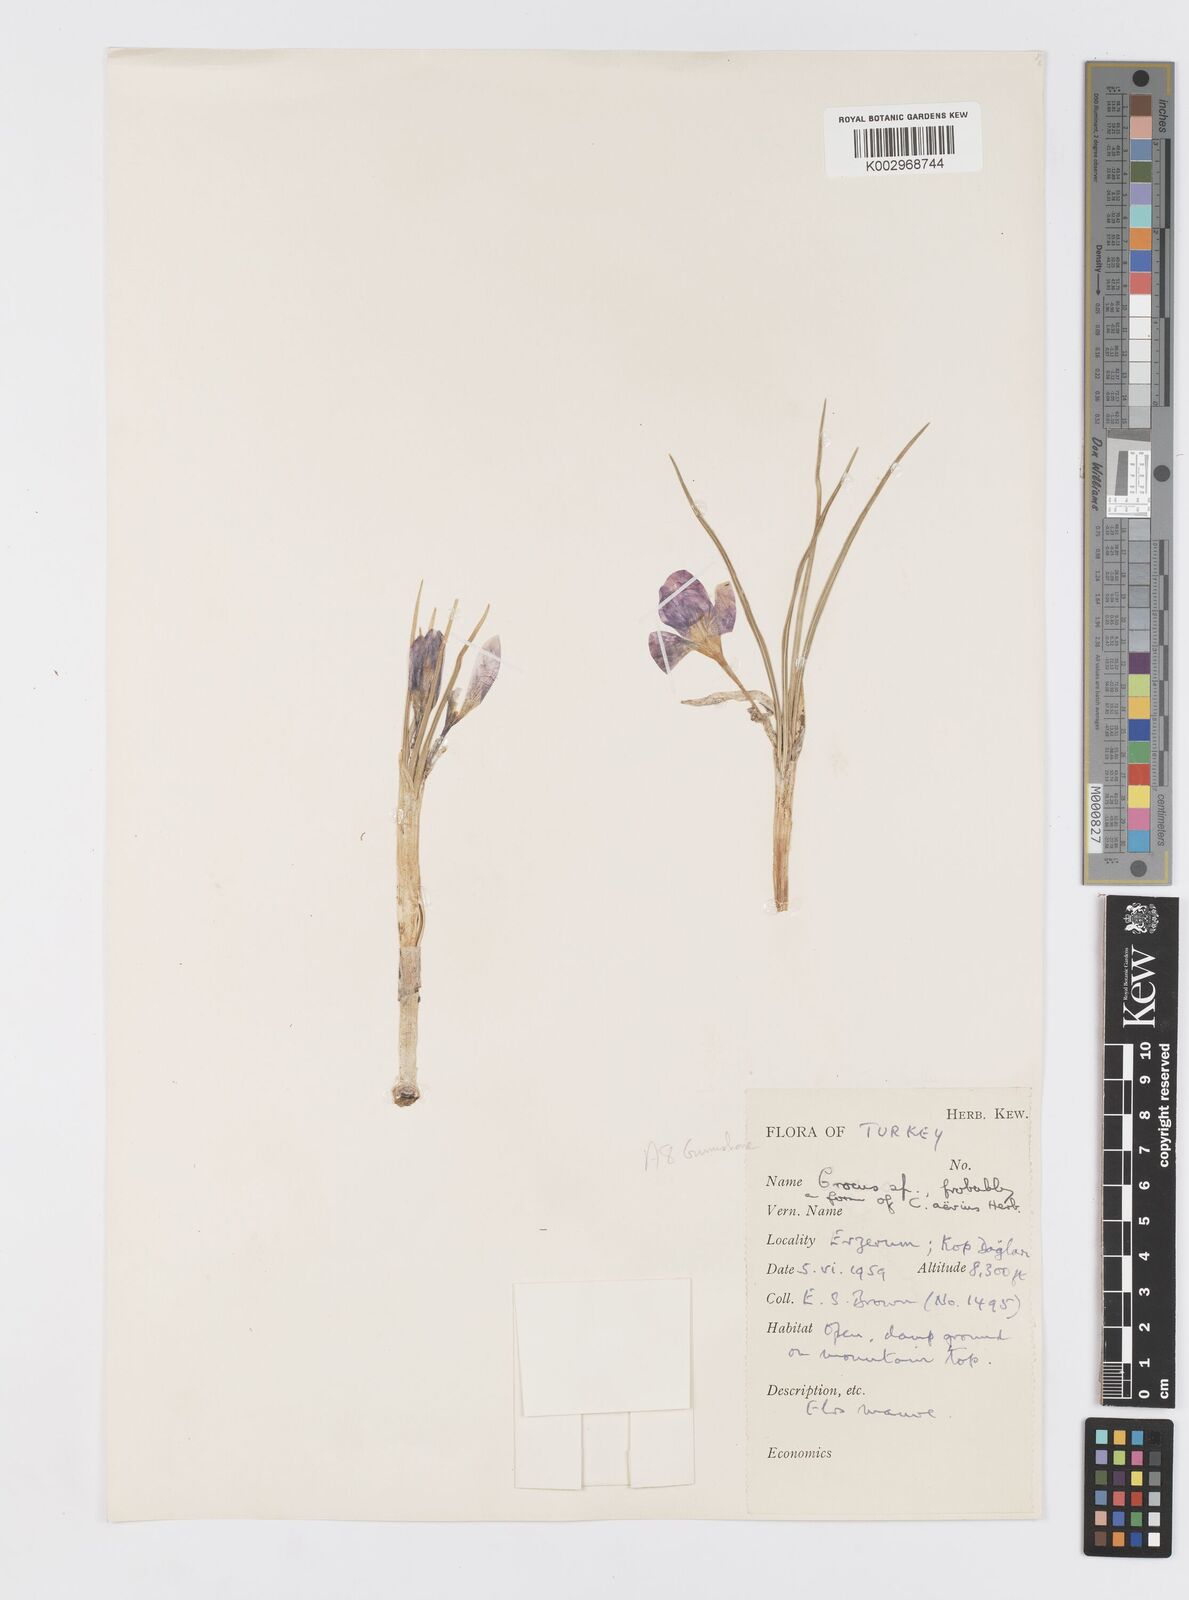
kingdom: Plantae
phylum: Tracheophyta
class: Liliopsida
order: Asparagales
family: Iridaceae
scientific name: Iridaceae
